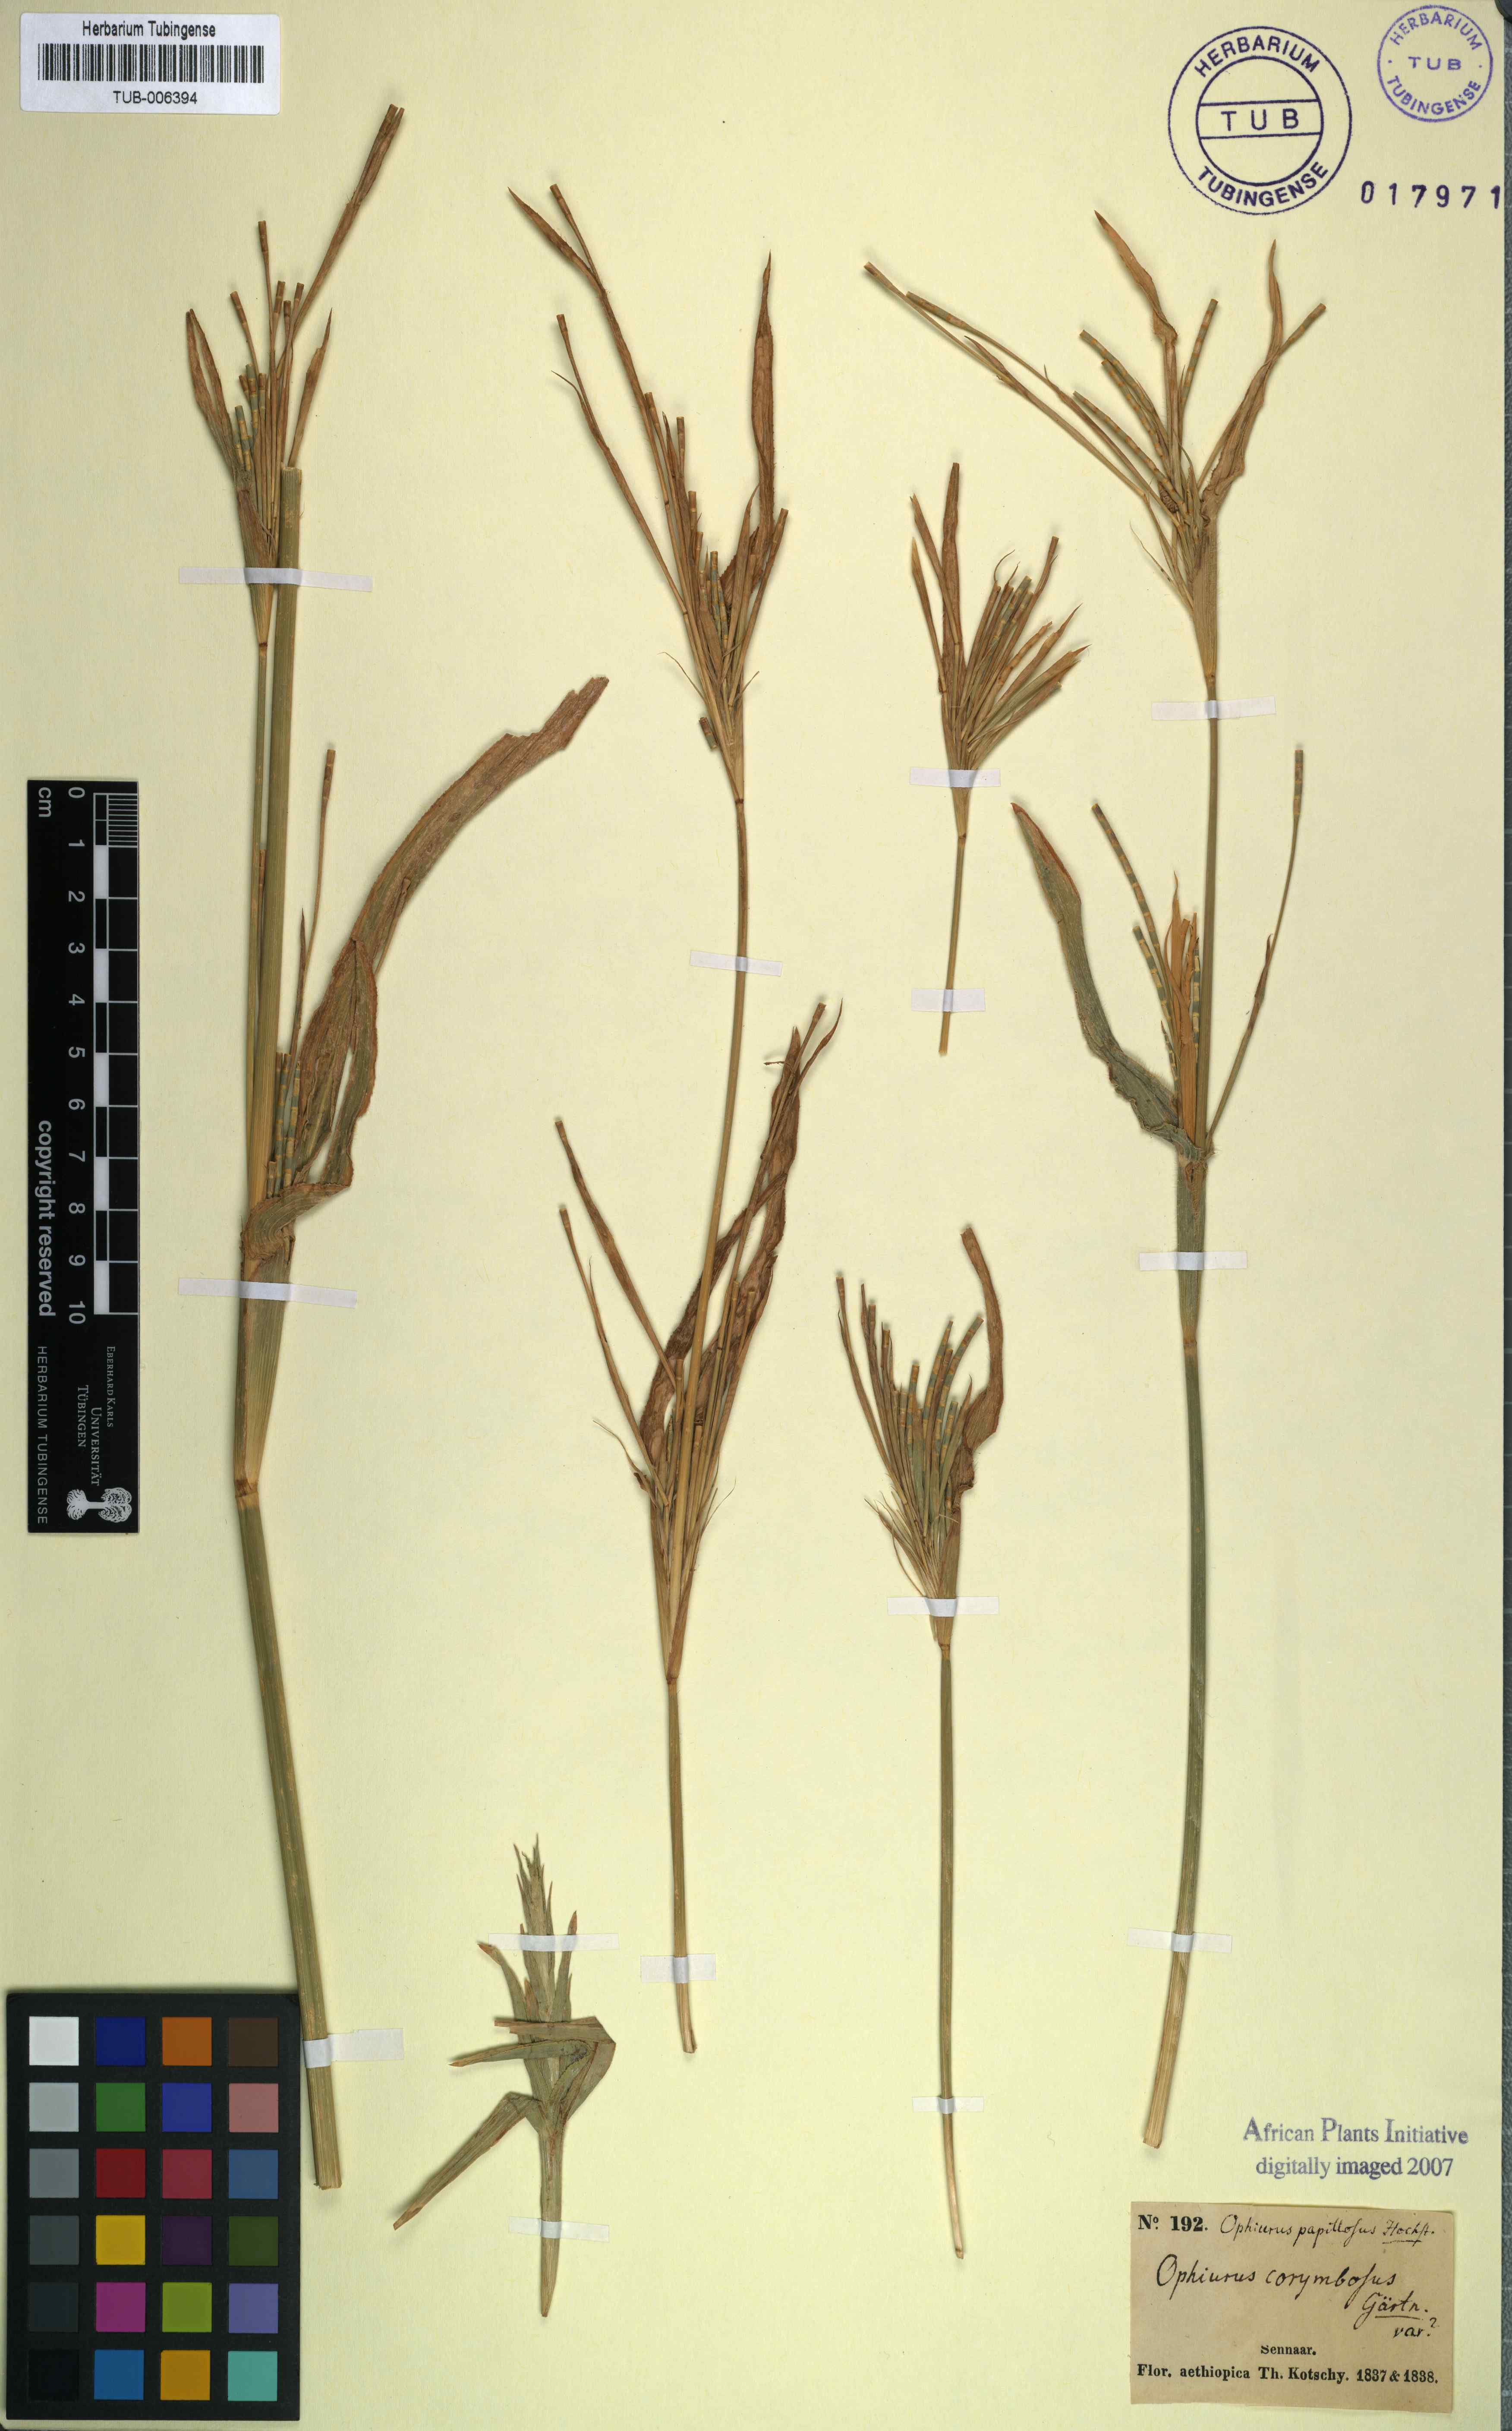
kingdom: Plantae
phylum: Tracheophyta
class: Liliopsida
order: Poales
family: Poaceae
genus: Ophiuros
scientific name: Ophiuros papillosus
